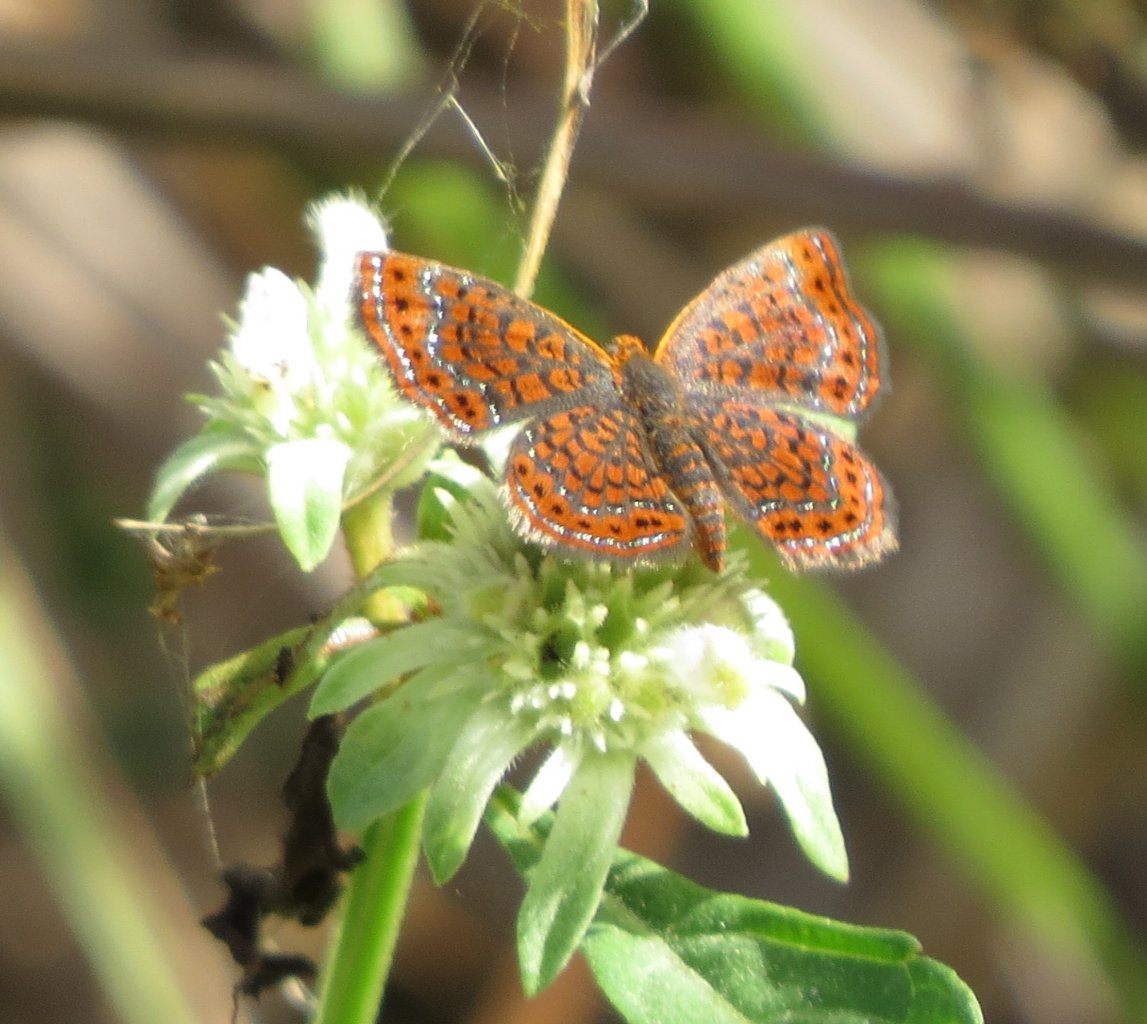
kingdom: Animalia
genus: Calephelis
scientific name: Calephelis virginiensis
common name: Little Metalmark
